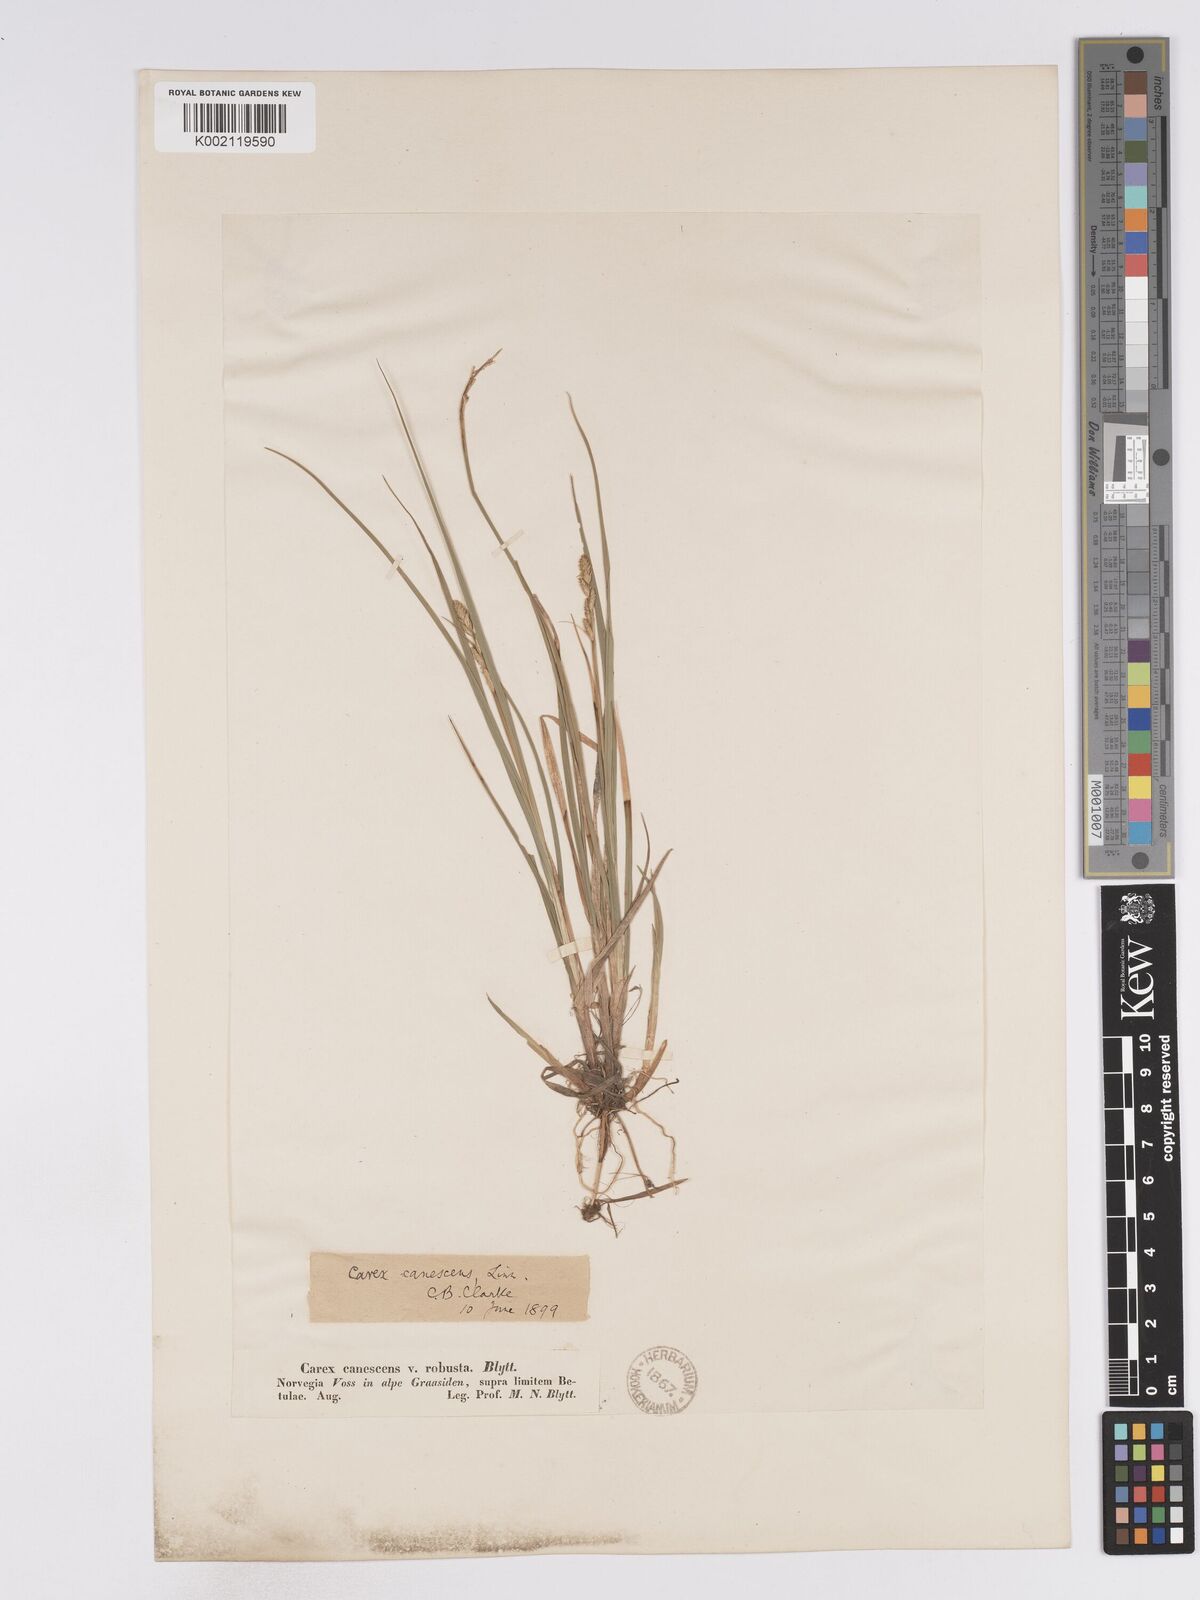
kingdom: Plantae
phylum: Tracheophyta
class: Liliopsida
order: Poales
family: Cyperaceae
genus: Carex
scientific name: Carex curta
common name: White sedge
